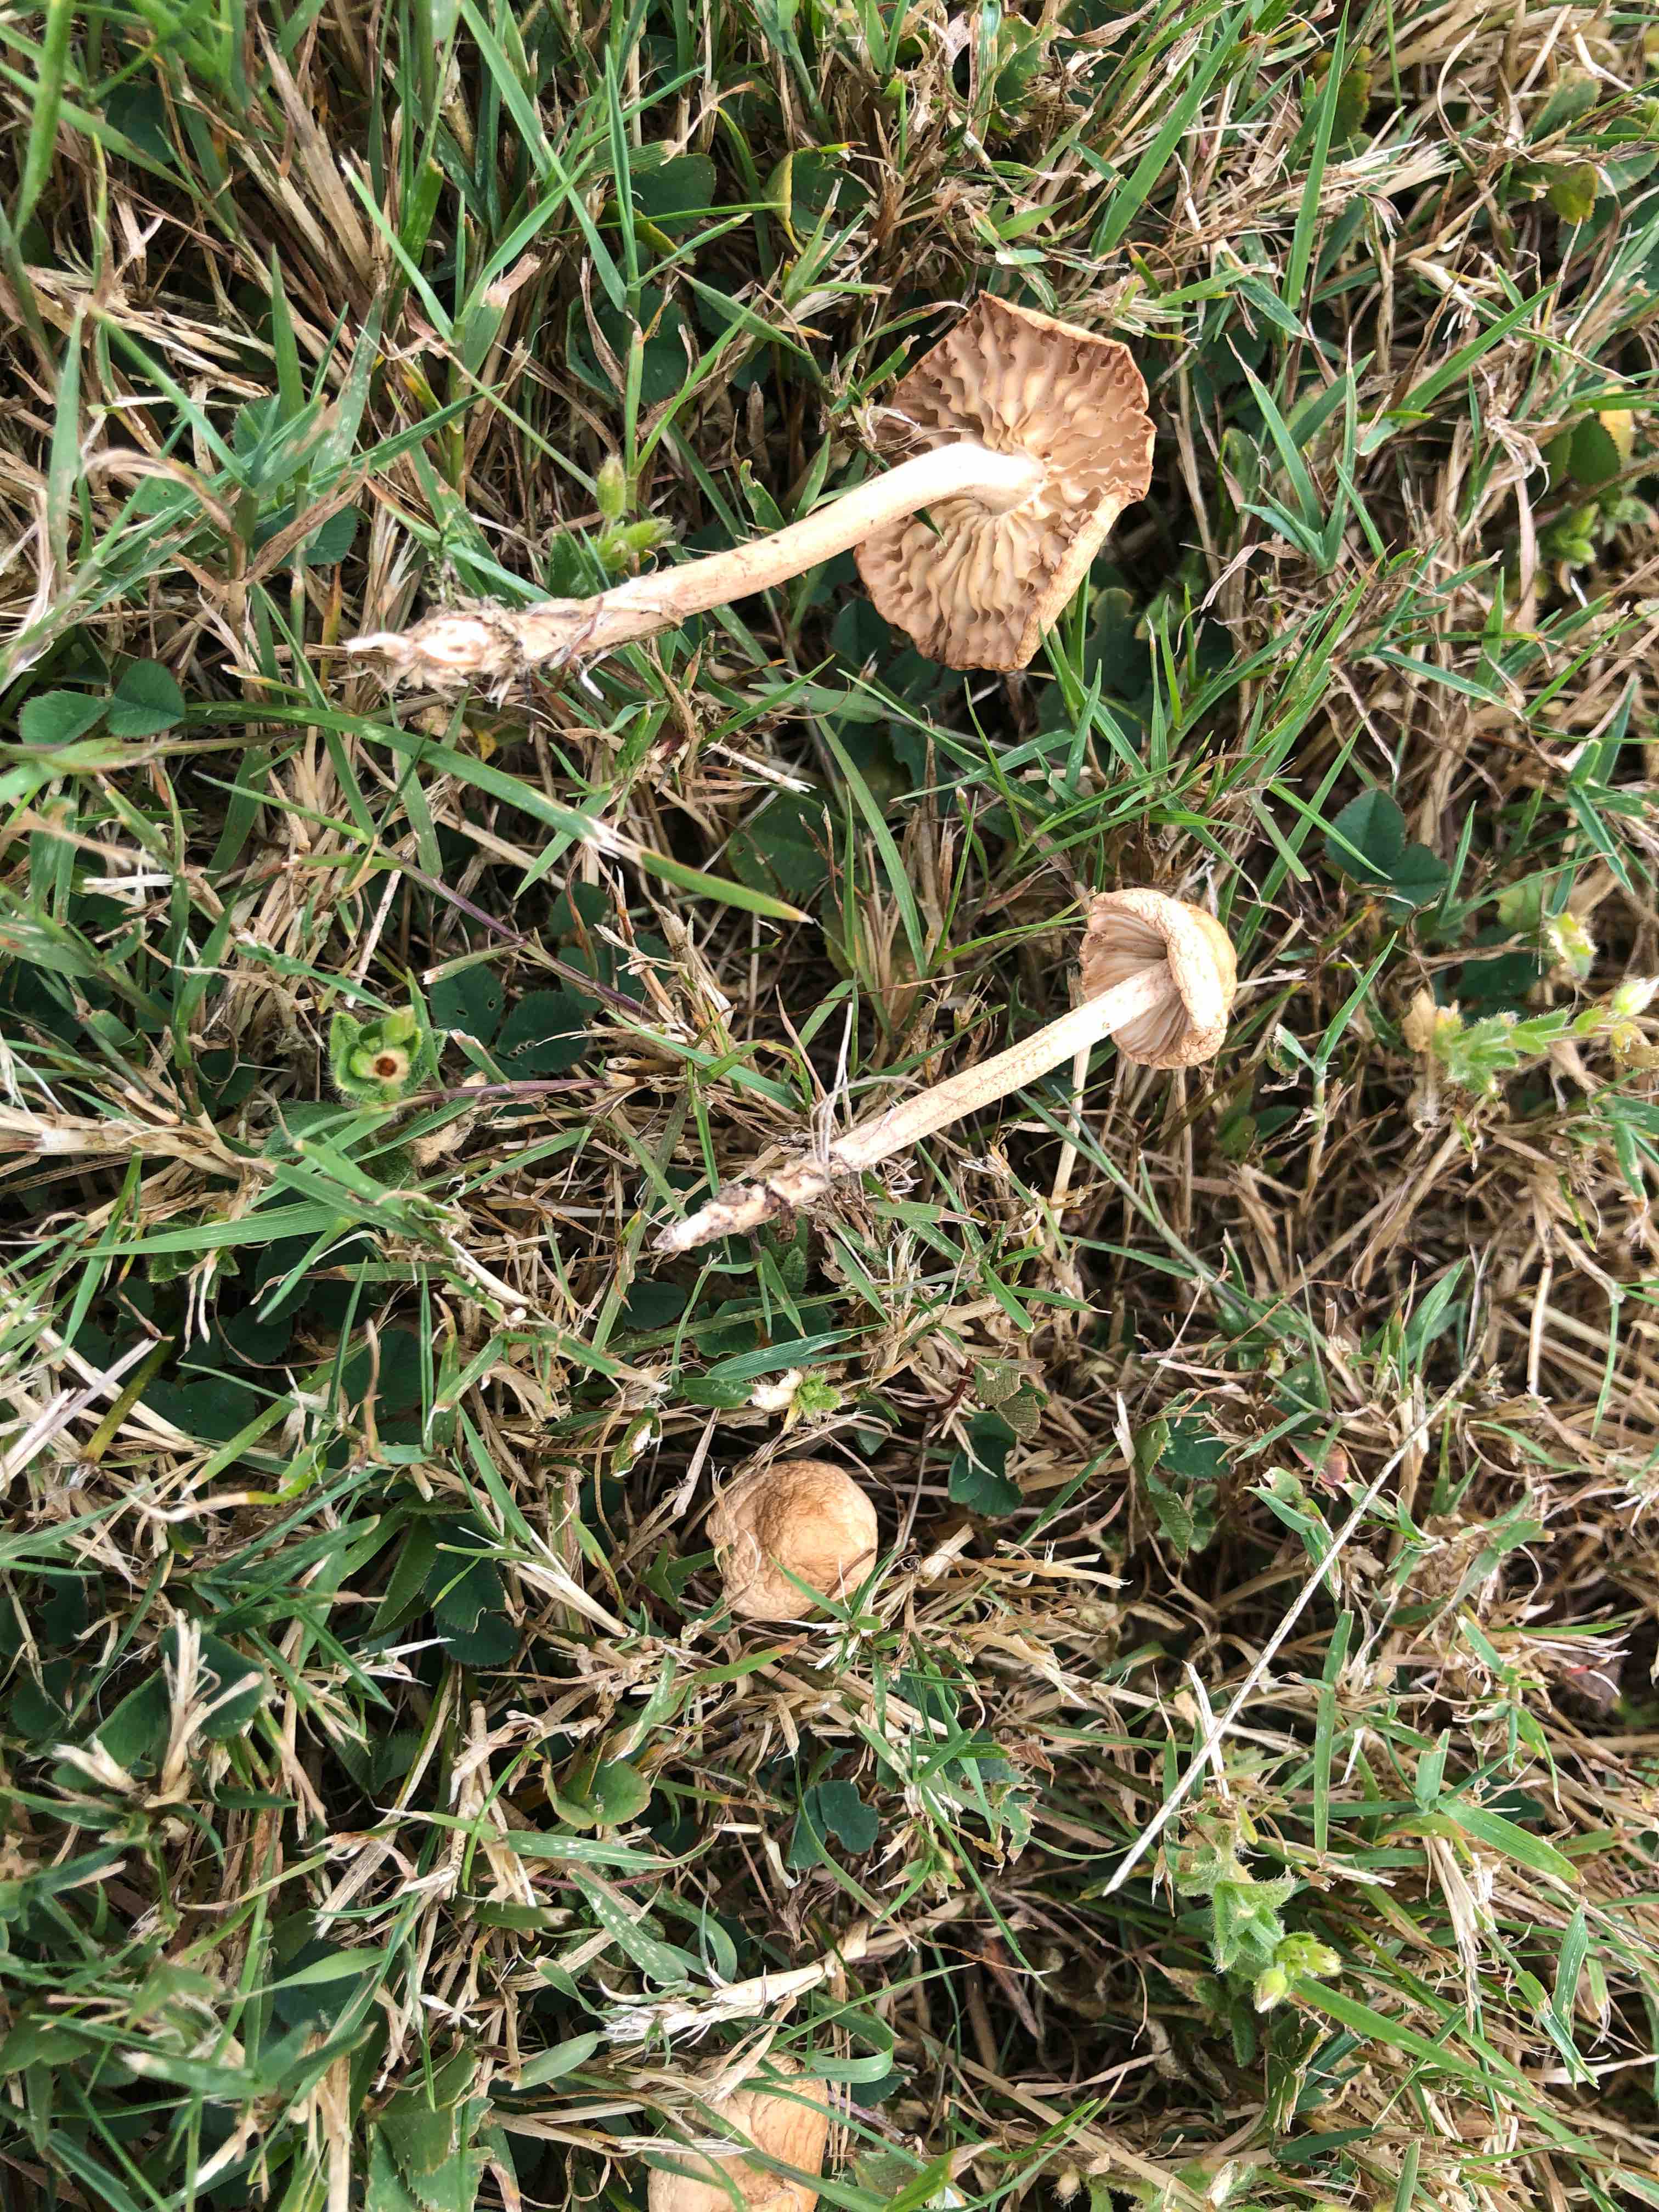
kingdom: Fungi
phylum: Basidiomycota
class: Agaricomycetes
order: Agaricales
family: Marasmiaceae
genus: Marasmius
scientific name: Marasmius oreades
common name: elledans-bruskhat
